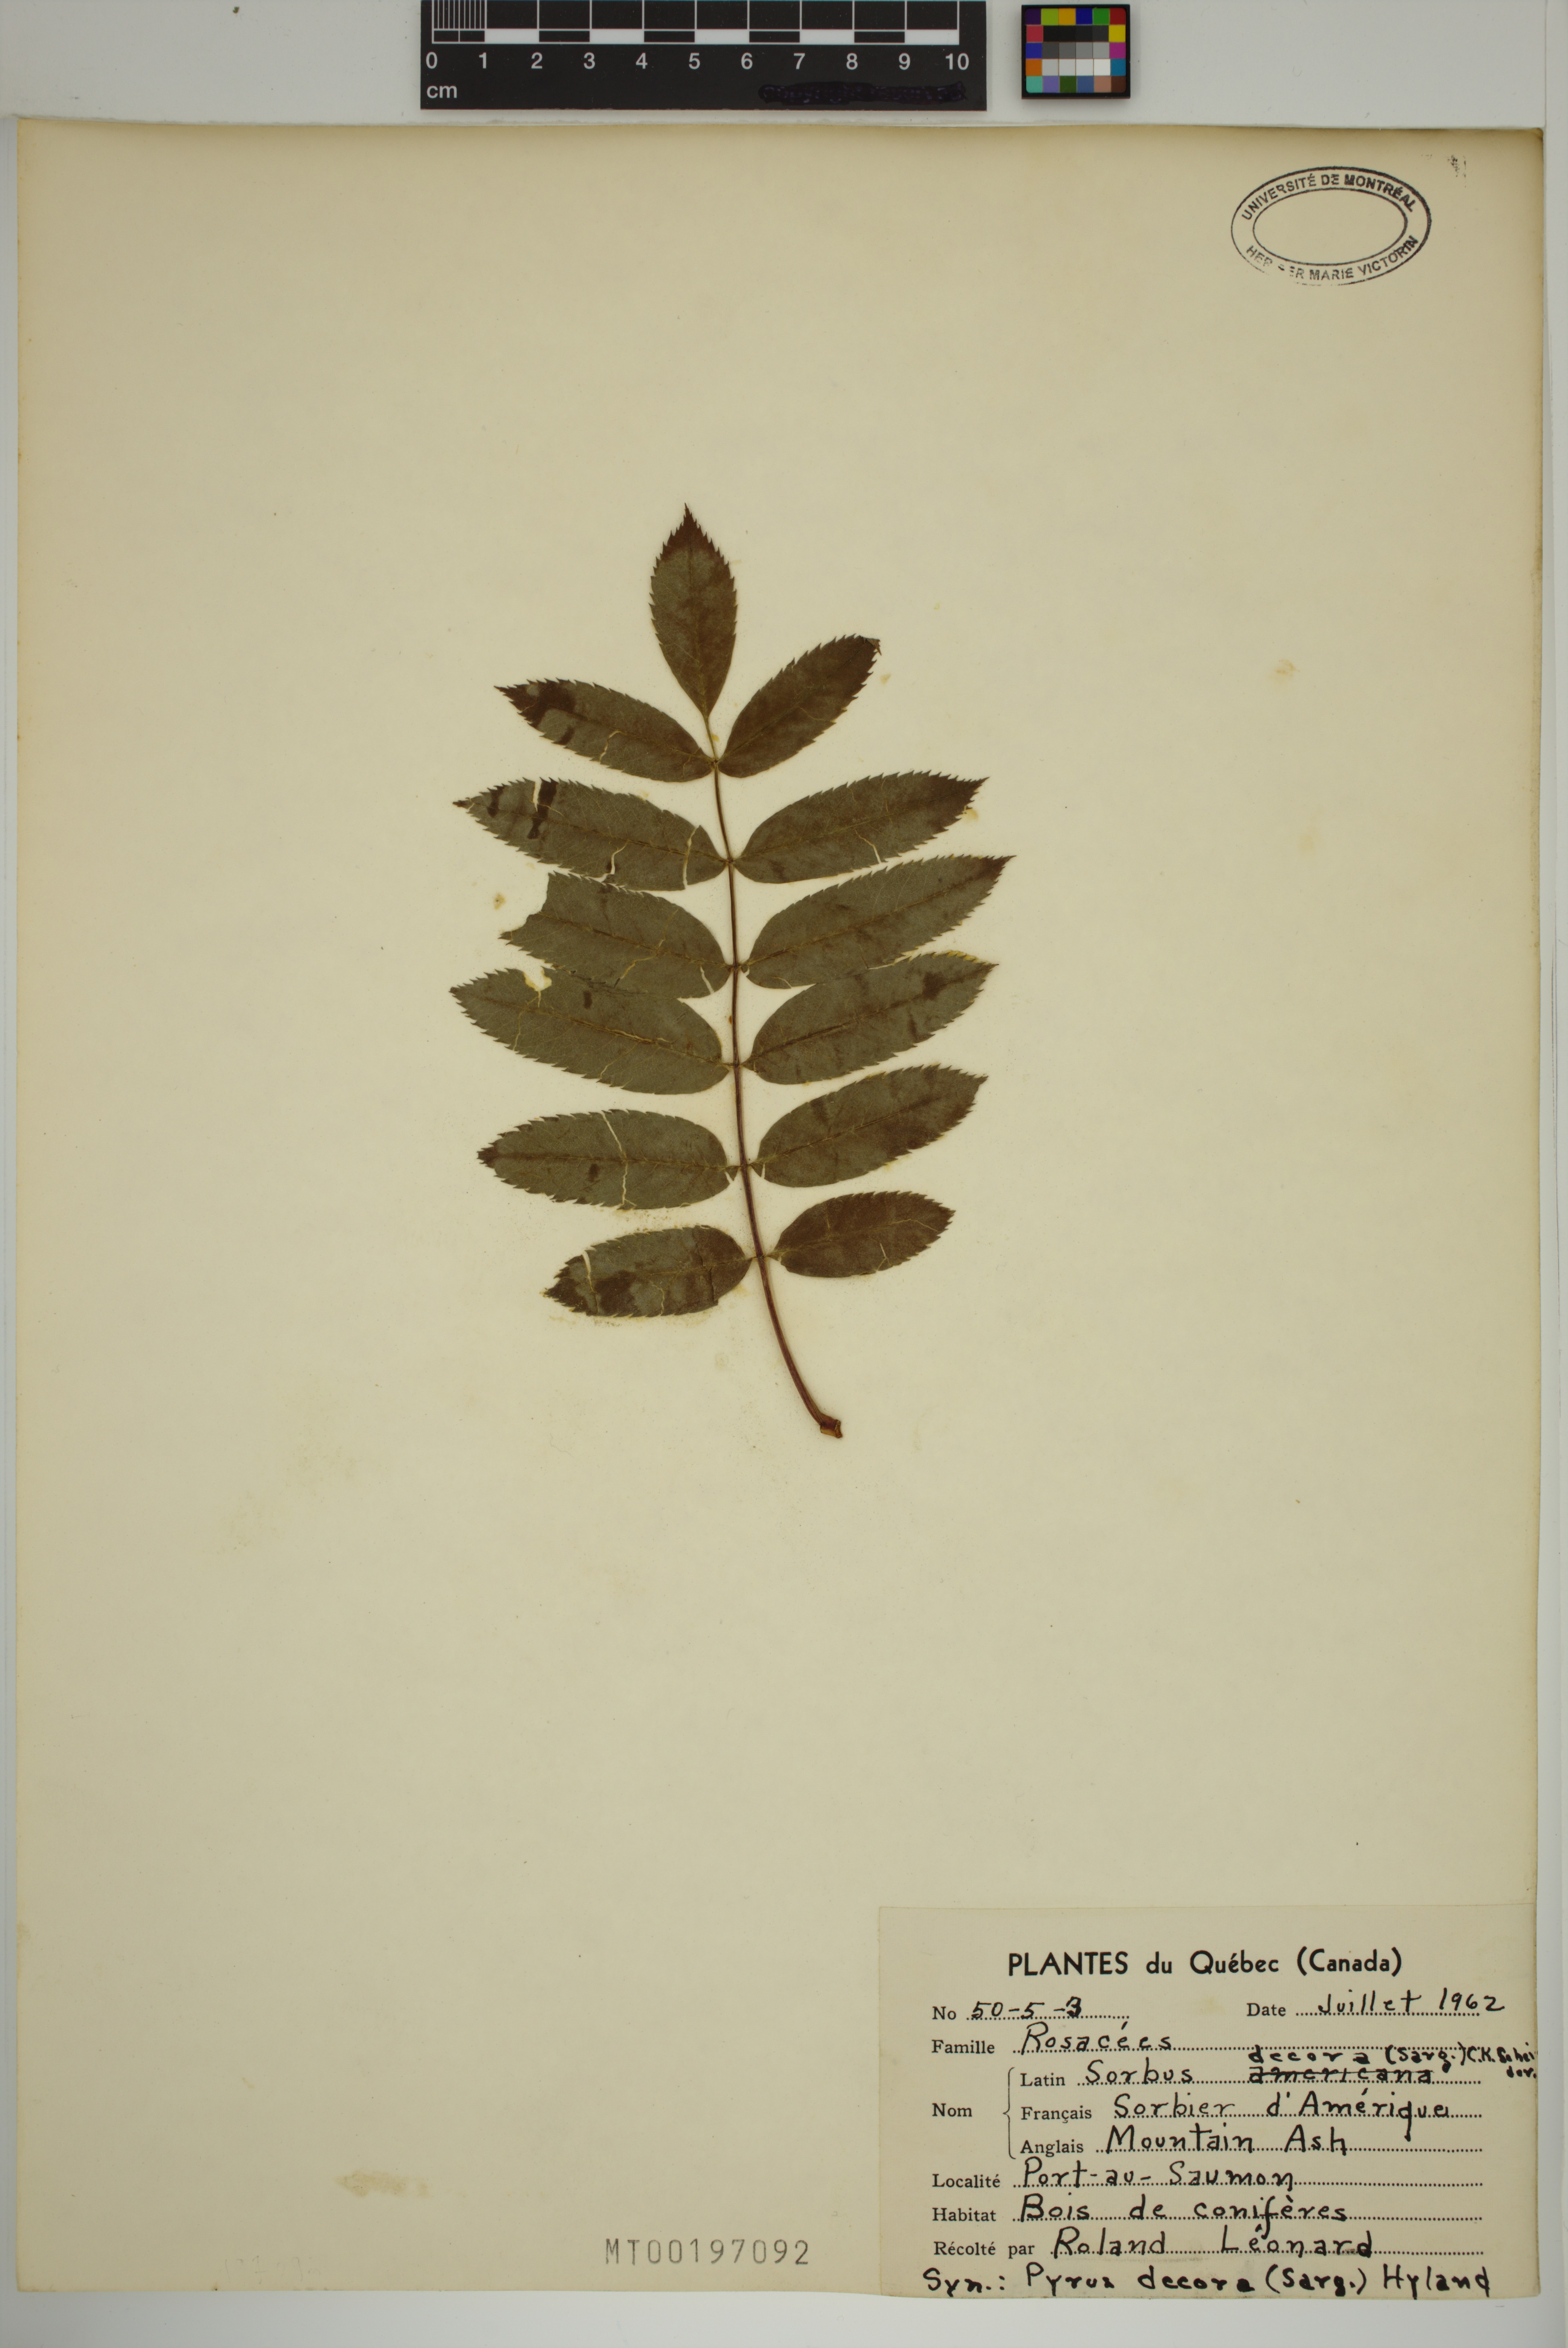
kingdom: Plantae
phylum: Tracheophyta
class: Magnoliopsida
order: Rosales
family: Rosaceae
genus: Sorbus
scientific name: Sorbus decora
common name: Northern mountain-ash
